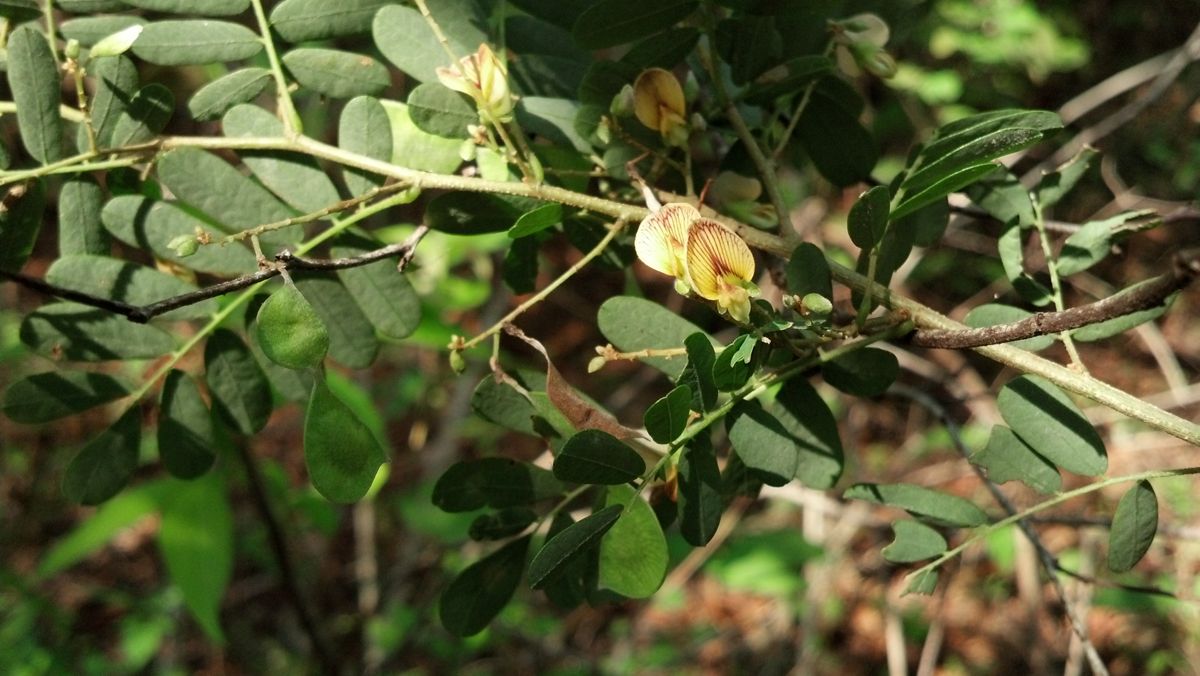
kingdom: Plantae
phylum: Tracheophyta
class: Magnoliopsida
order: Fabales
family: Fabaceae
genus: Ctenodon
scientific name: Ctenodon nicaraguensis
